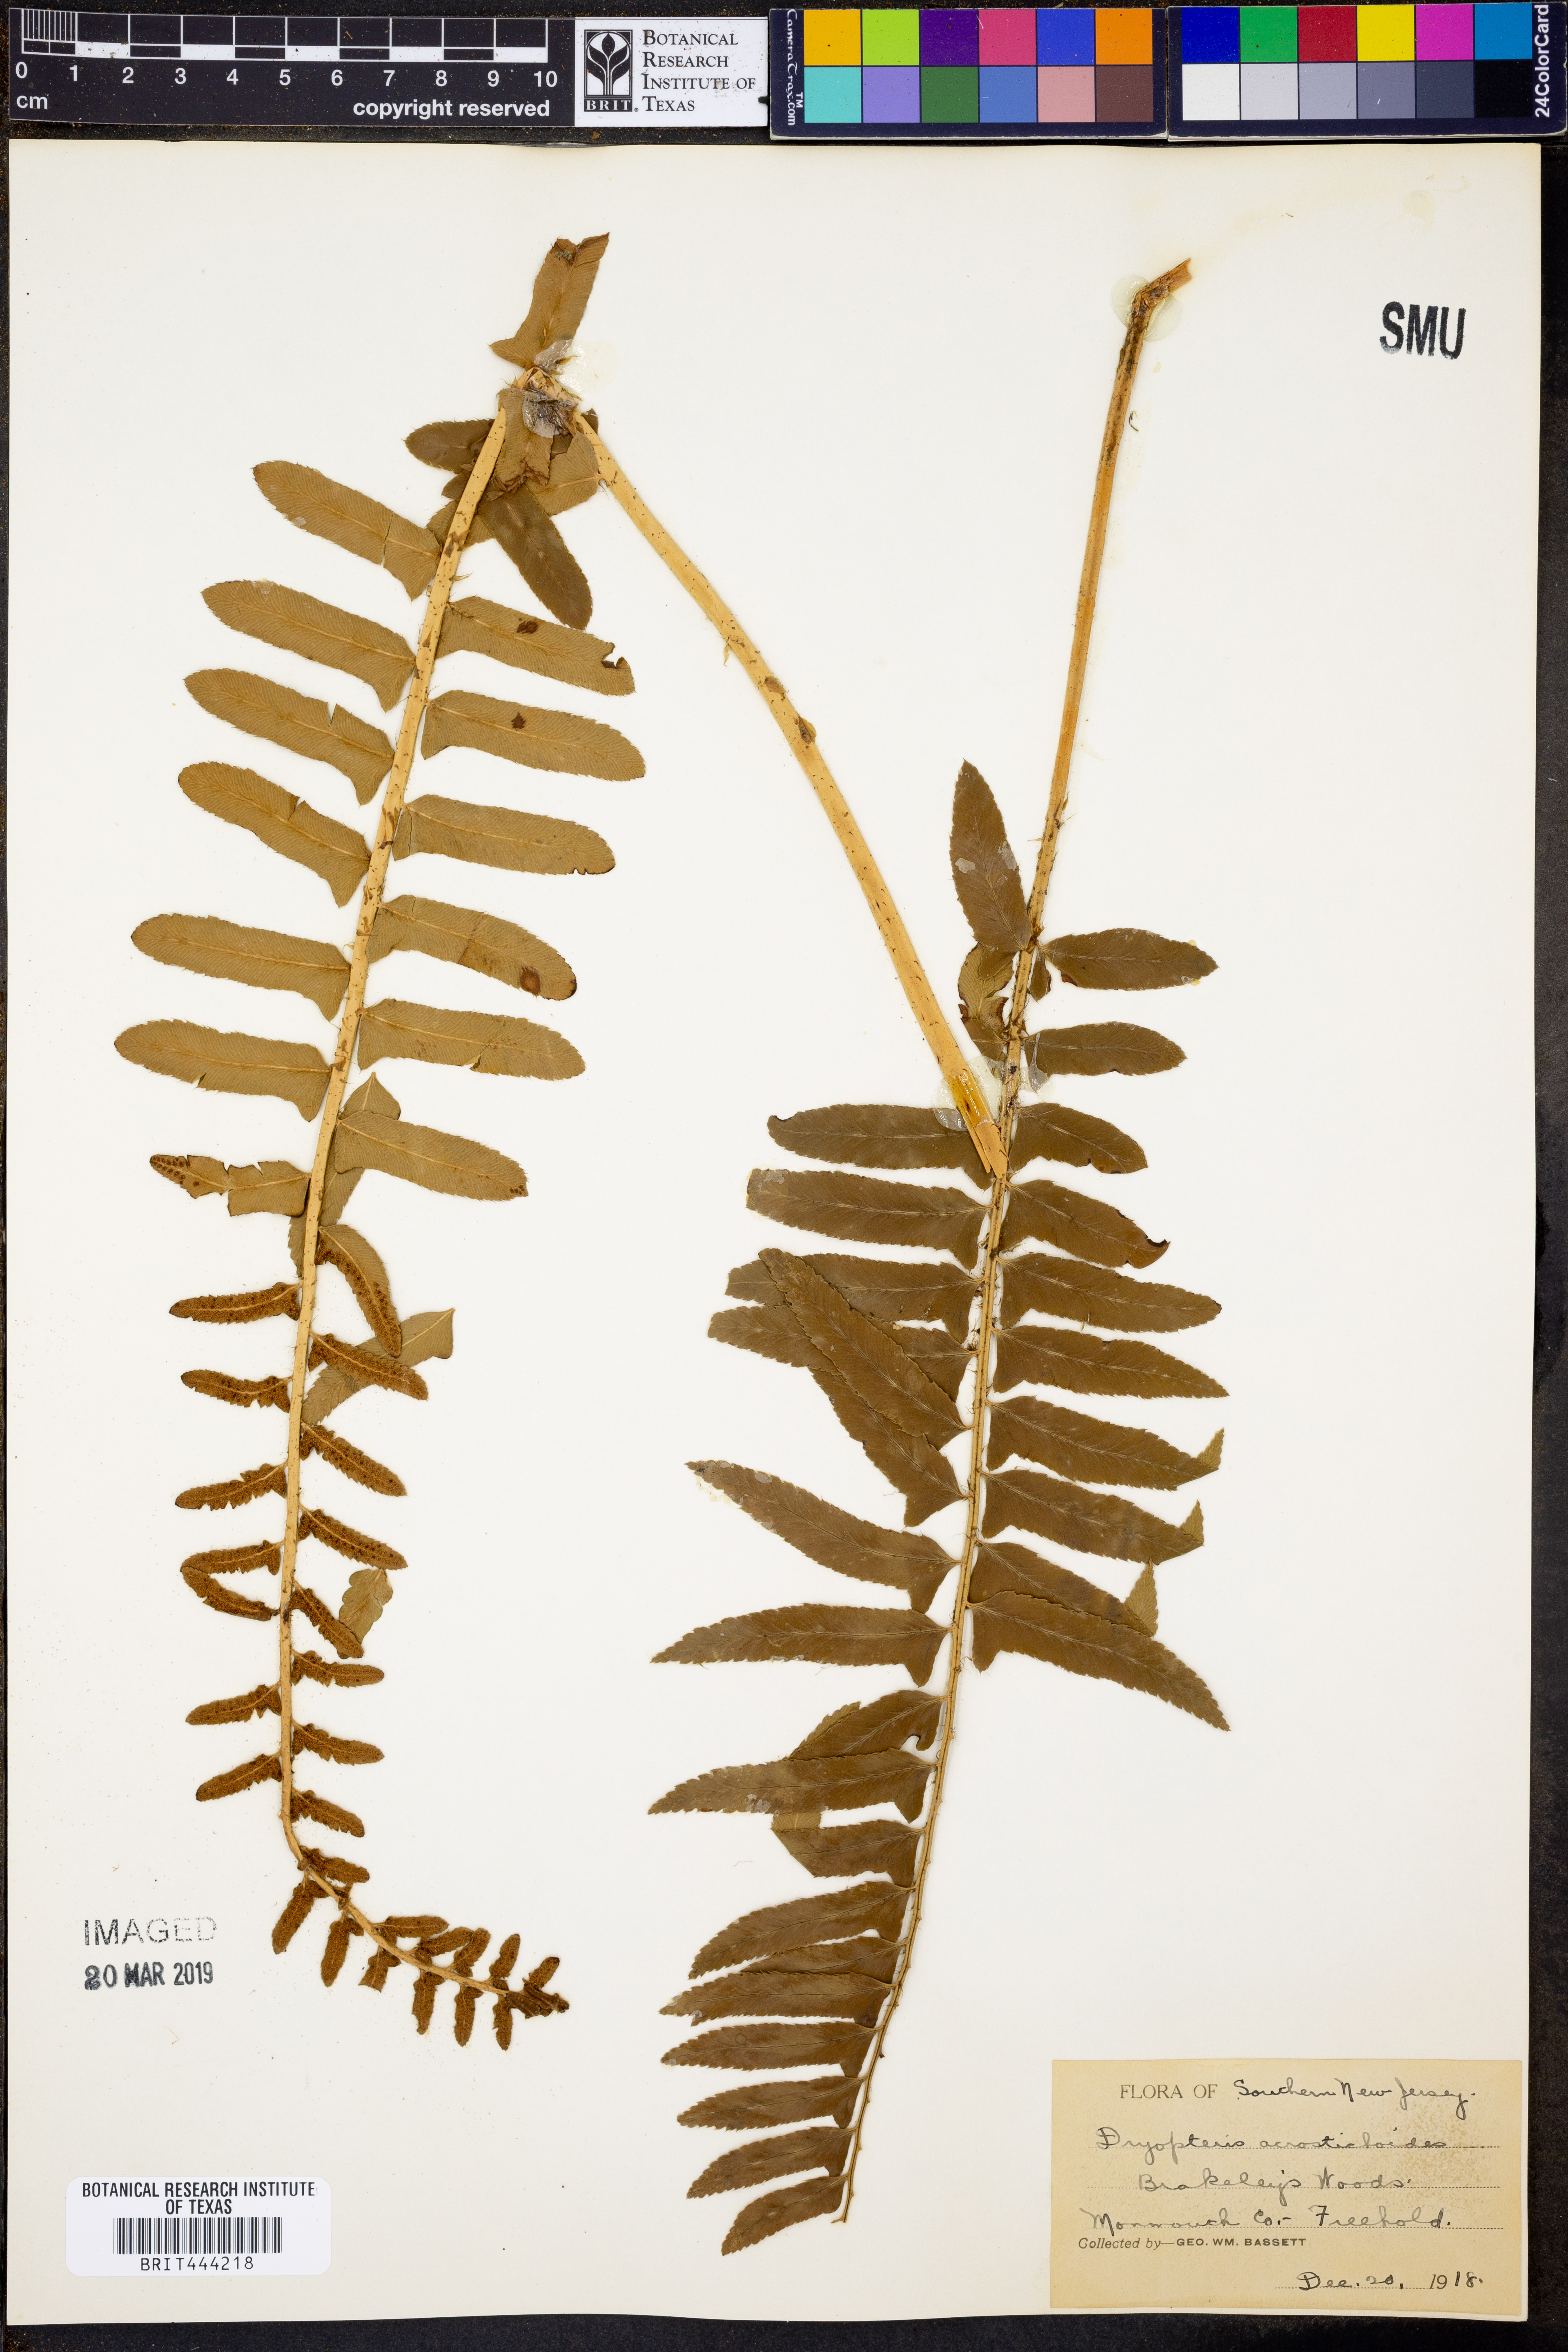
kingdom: Plantae
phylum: Tracheophyta
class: Polypodiopsida
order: Polypodiales
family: Dryopteridaceae
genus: Polystichum
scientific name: Polystichum acrostichoides
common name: Christmas fern
